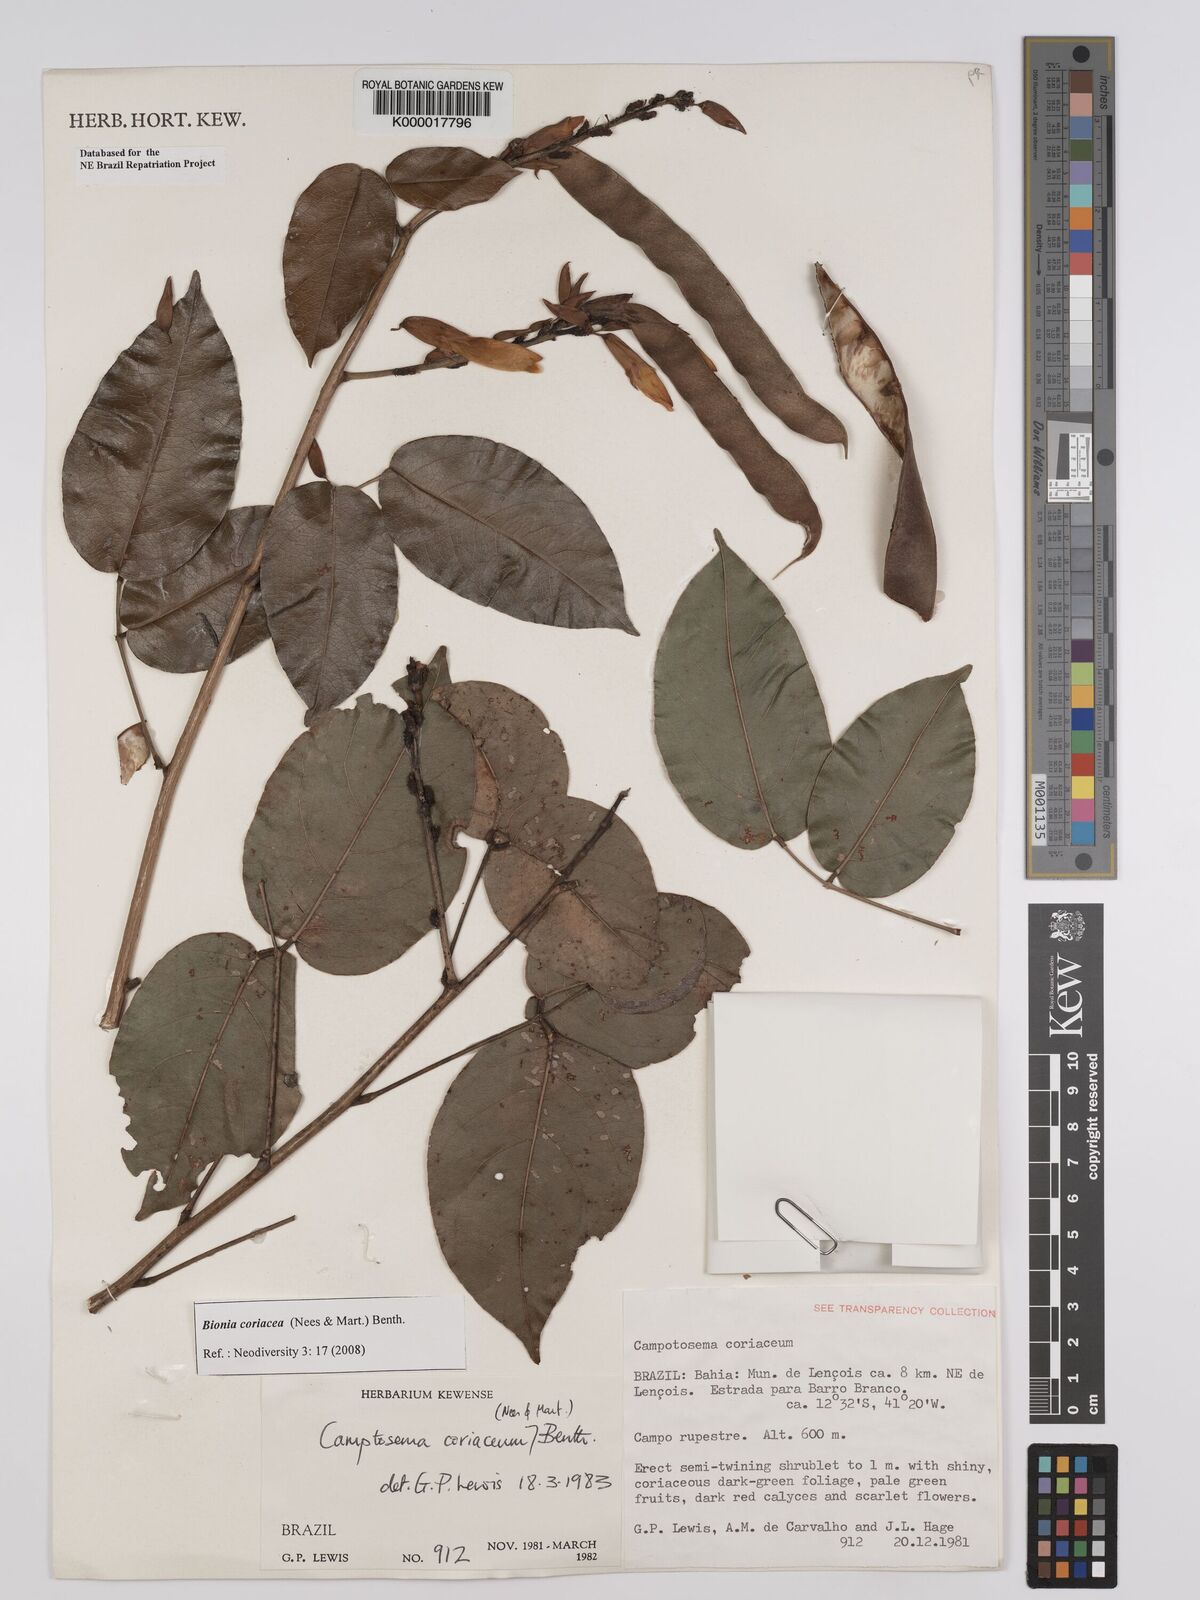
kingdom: Plantae
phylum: Tracheophyta
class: Magnoliopsida
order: Fabales
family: Fabaceae
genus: Camptosema
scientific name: Camptosema coriaceum
